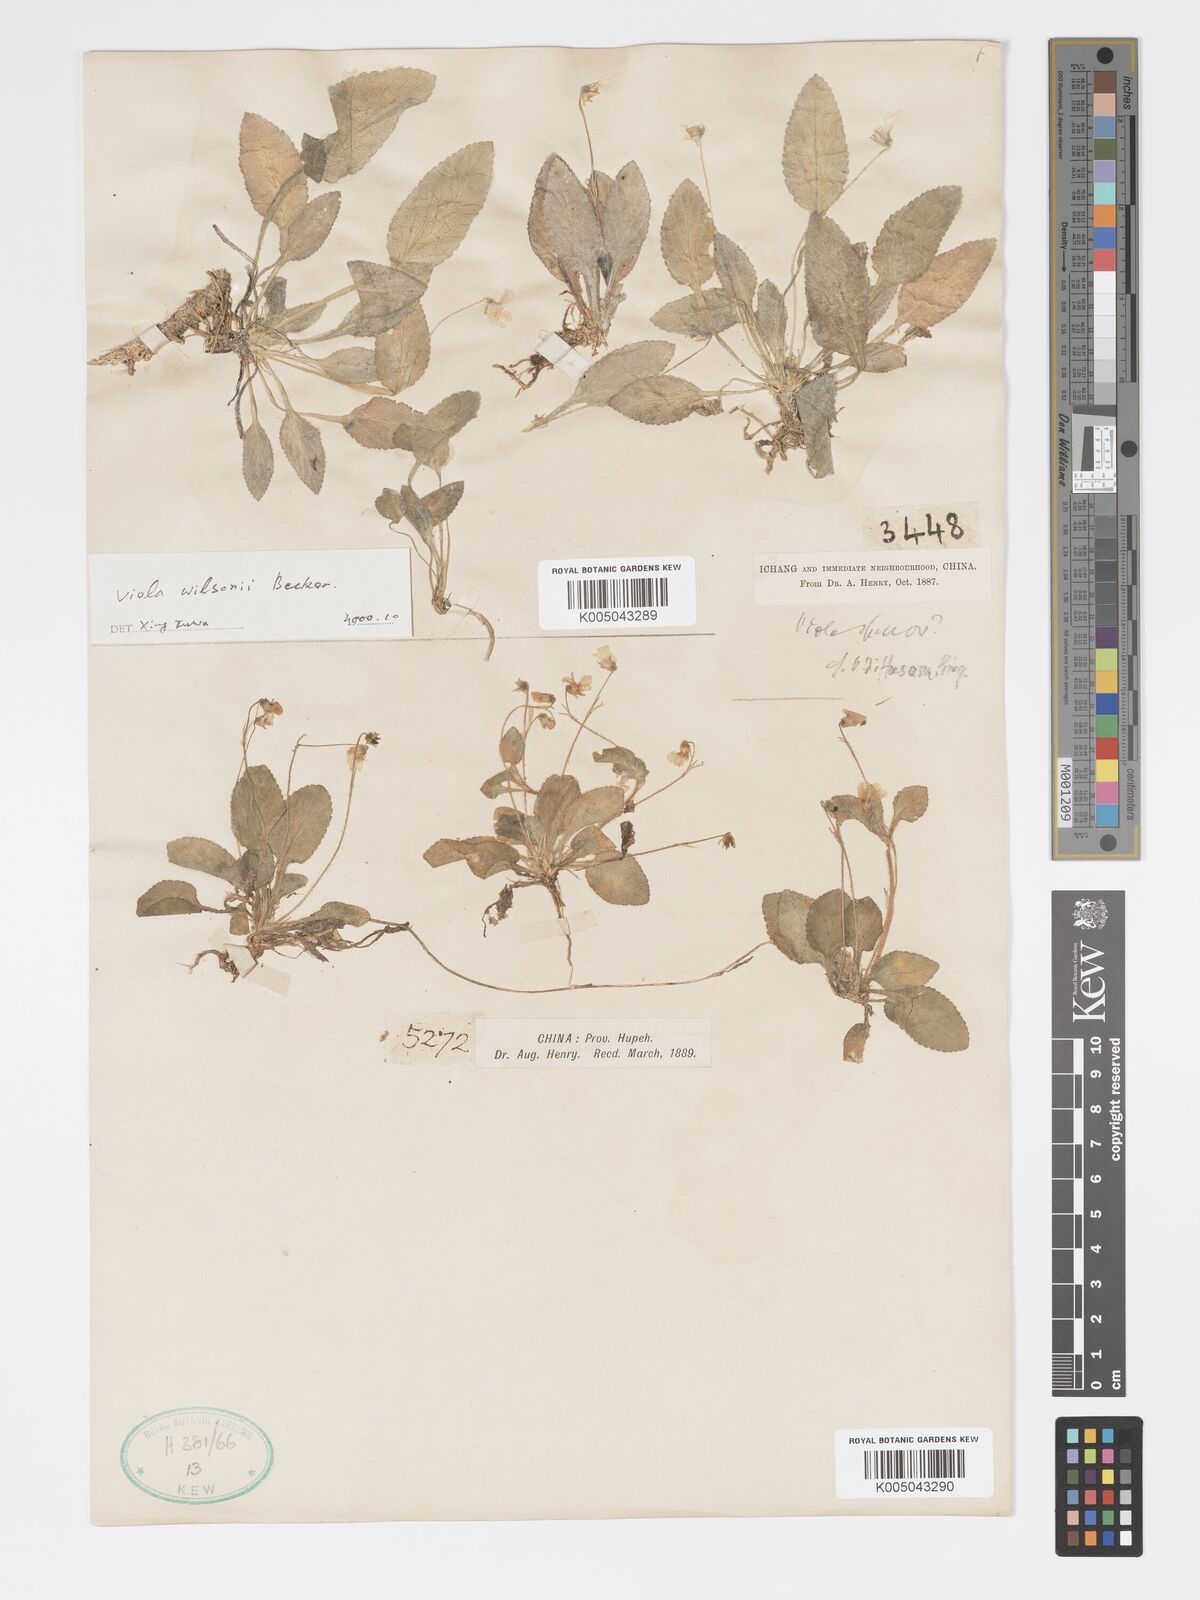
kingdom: Plantae
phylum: Tracheophyta
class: Magnoliopsida
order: Malpighiales
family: Violaceae
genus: Viola
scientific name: Viola wilsonii
